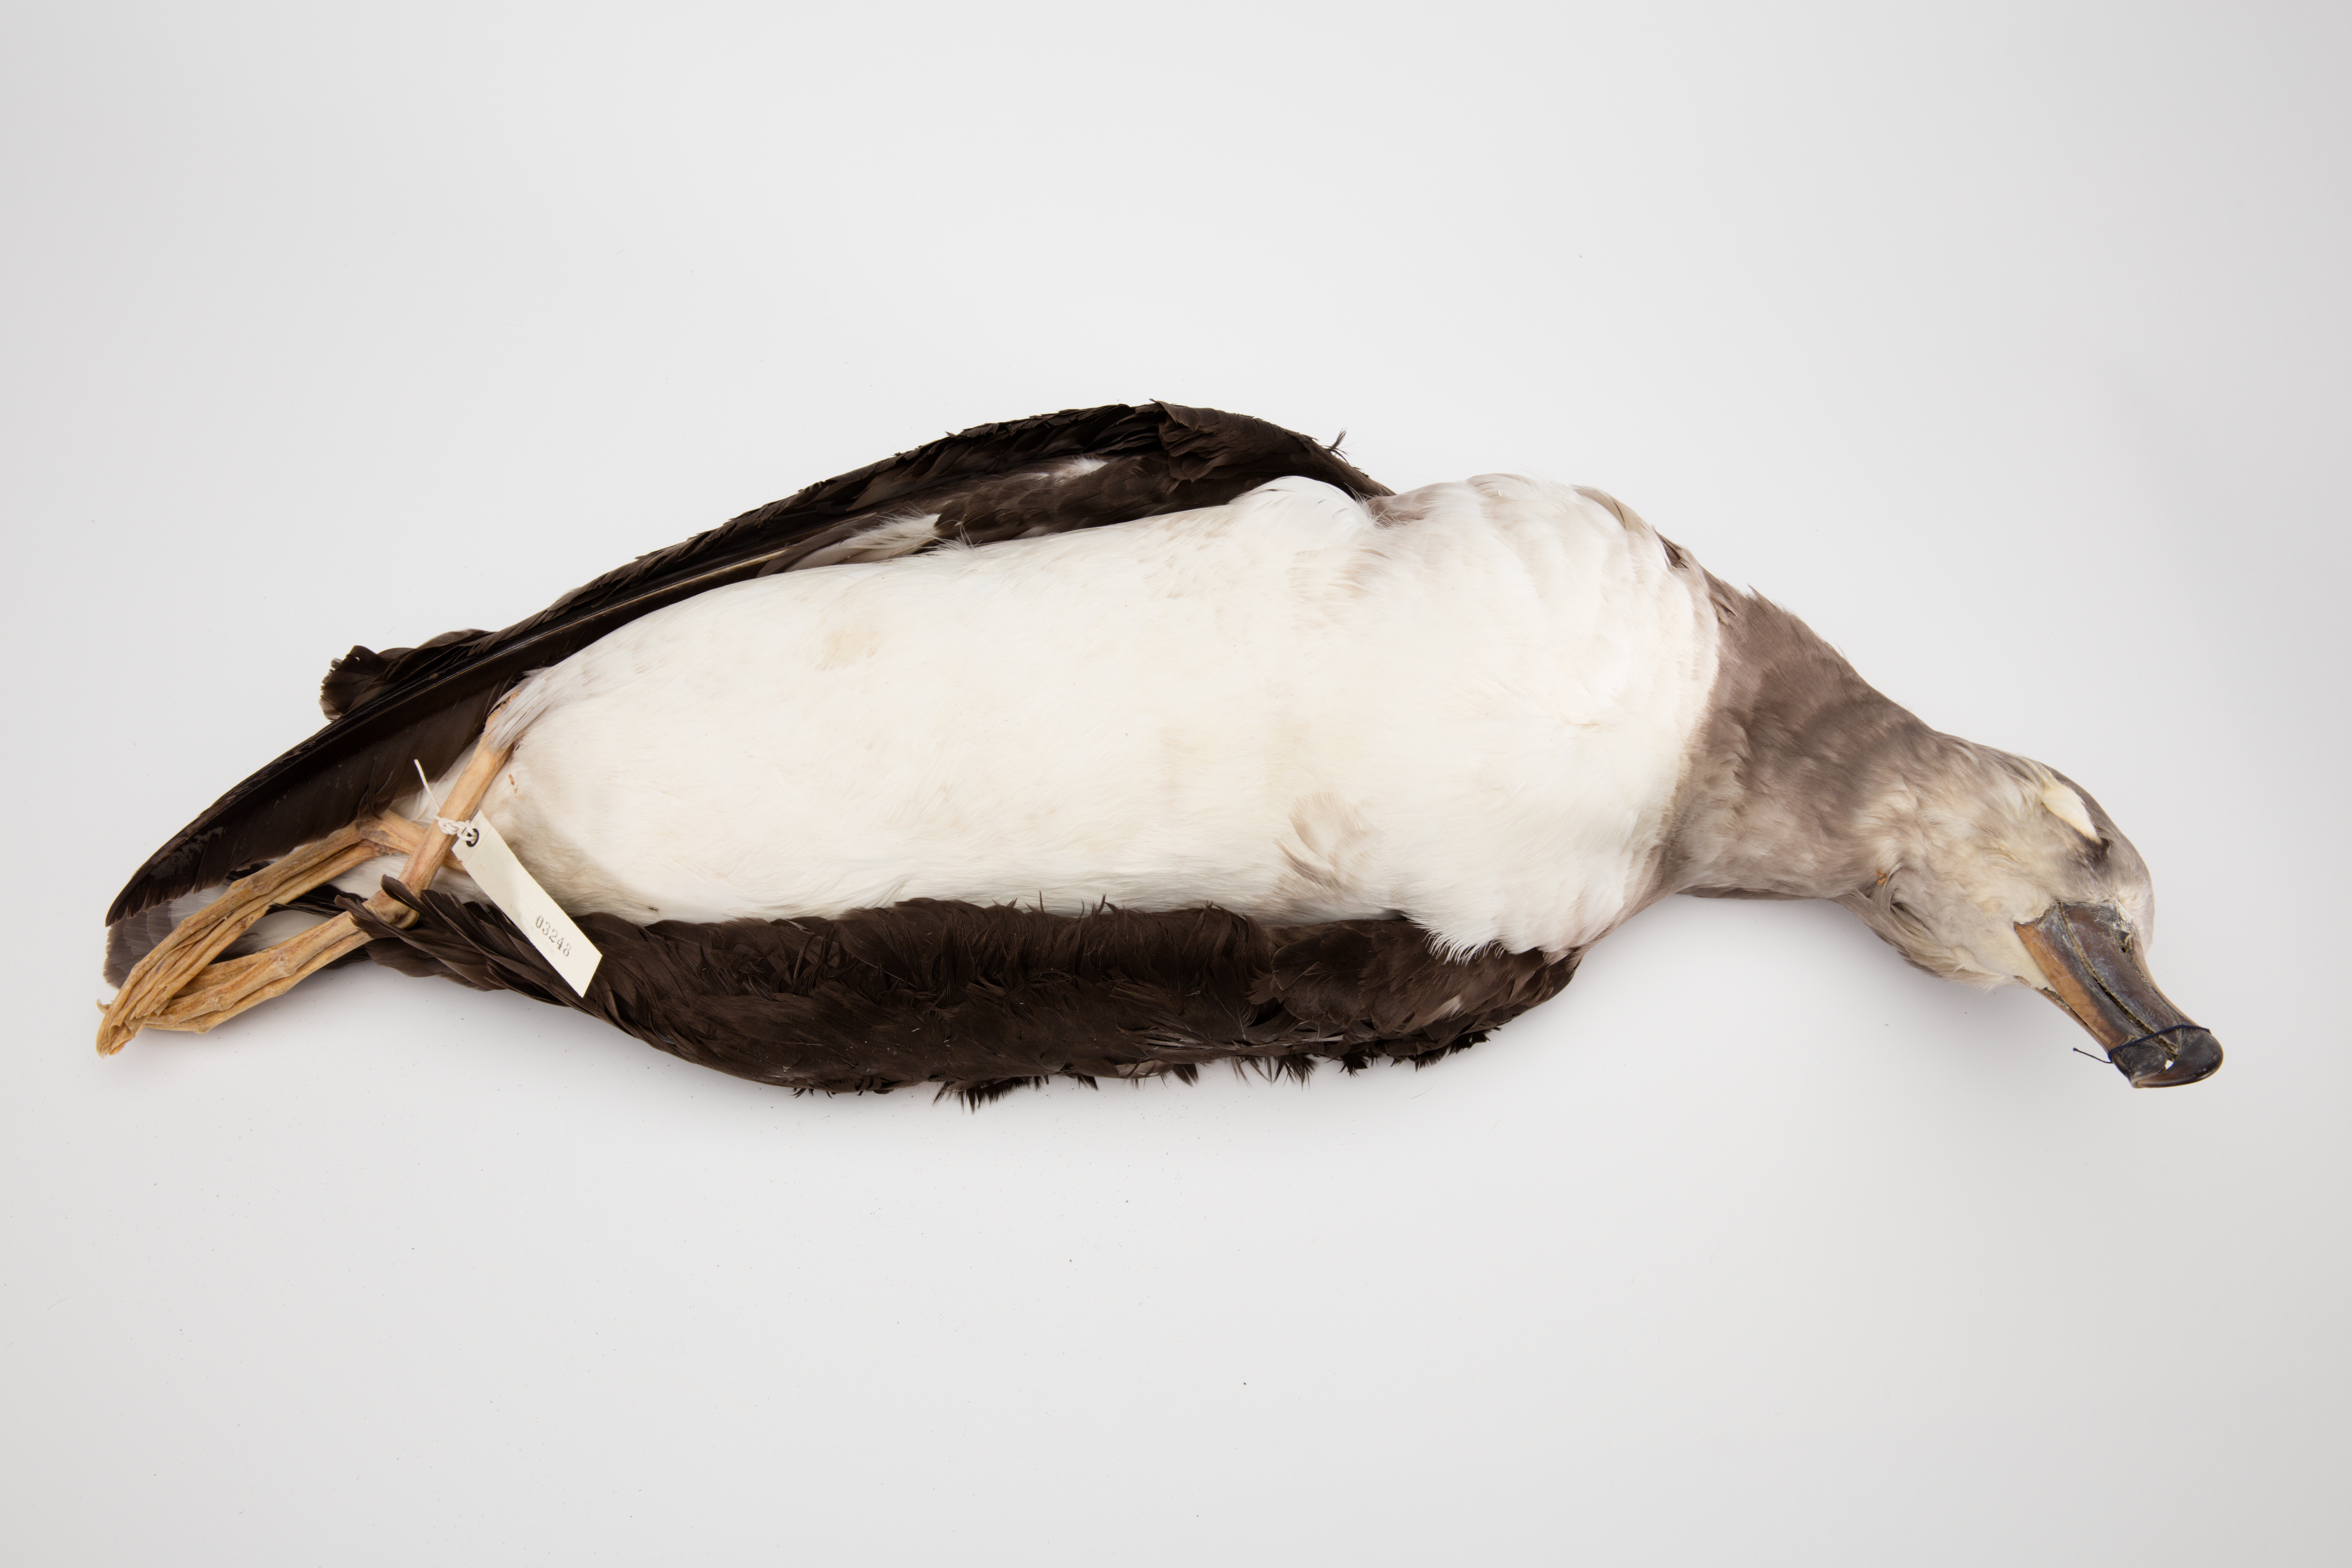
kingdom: Animalia
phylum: Chordata
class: Aves
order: Procellariiformes
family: Diomedeidae
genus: Thalassarche
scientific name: Thalassarche chrysostoma
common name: Grey-headed albatross
